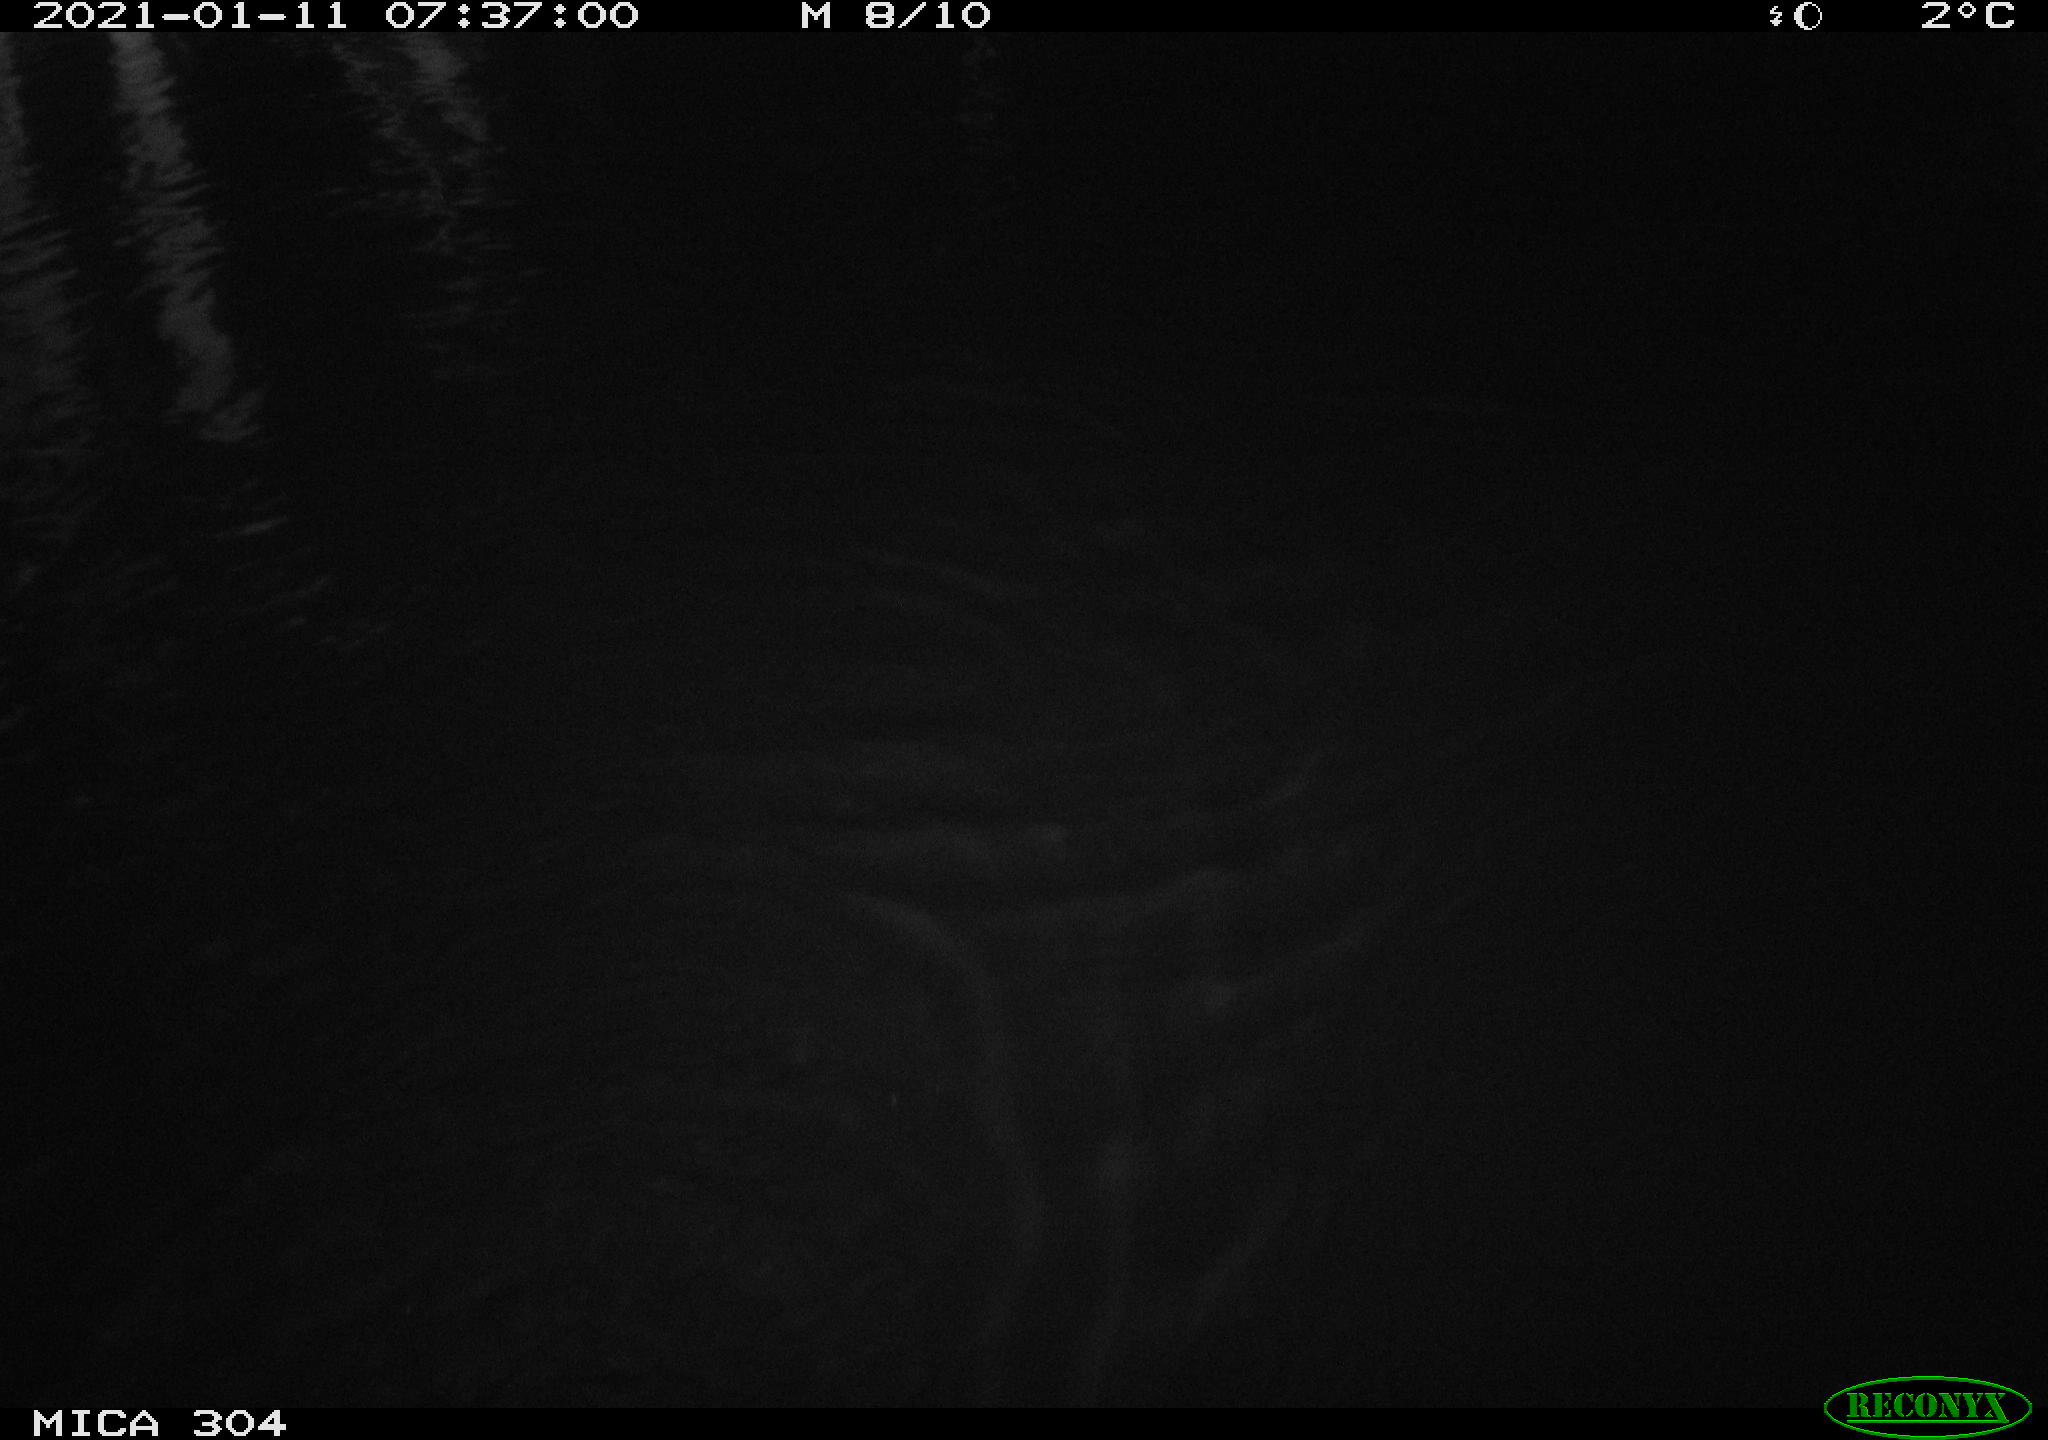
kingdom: Animalia
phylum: Chordata
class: Mammalia
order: Rodentia
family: Muridae
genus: Rattus
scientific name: Rattus norvegicus
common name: Brown rat
